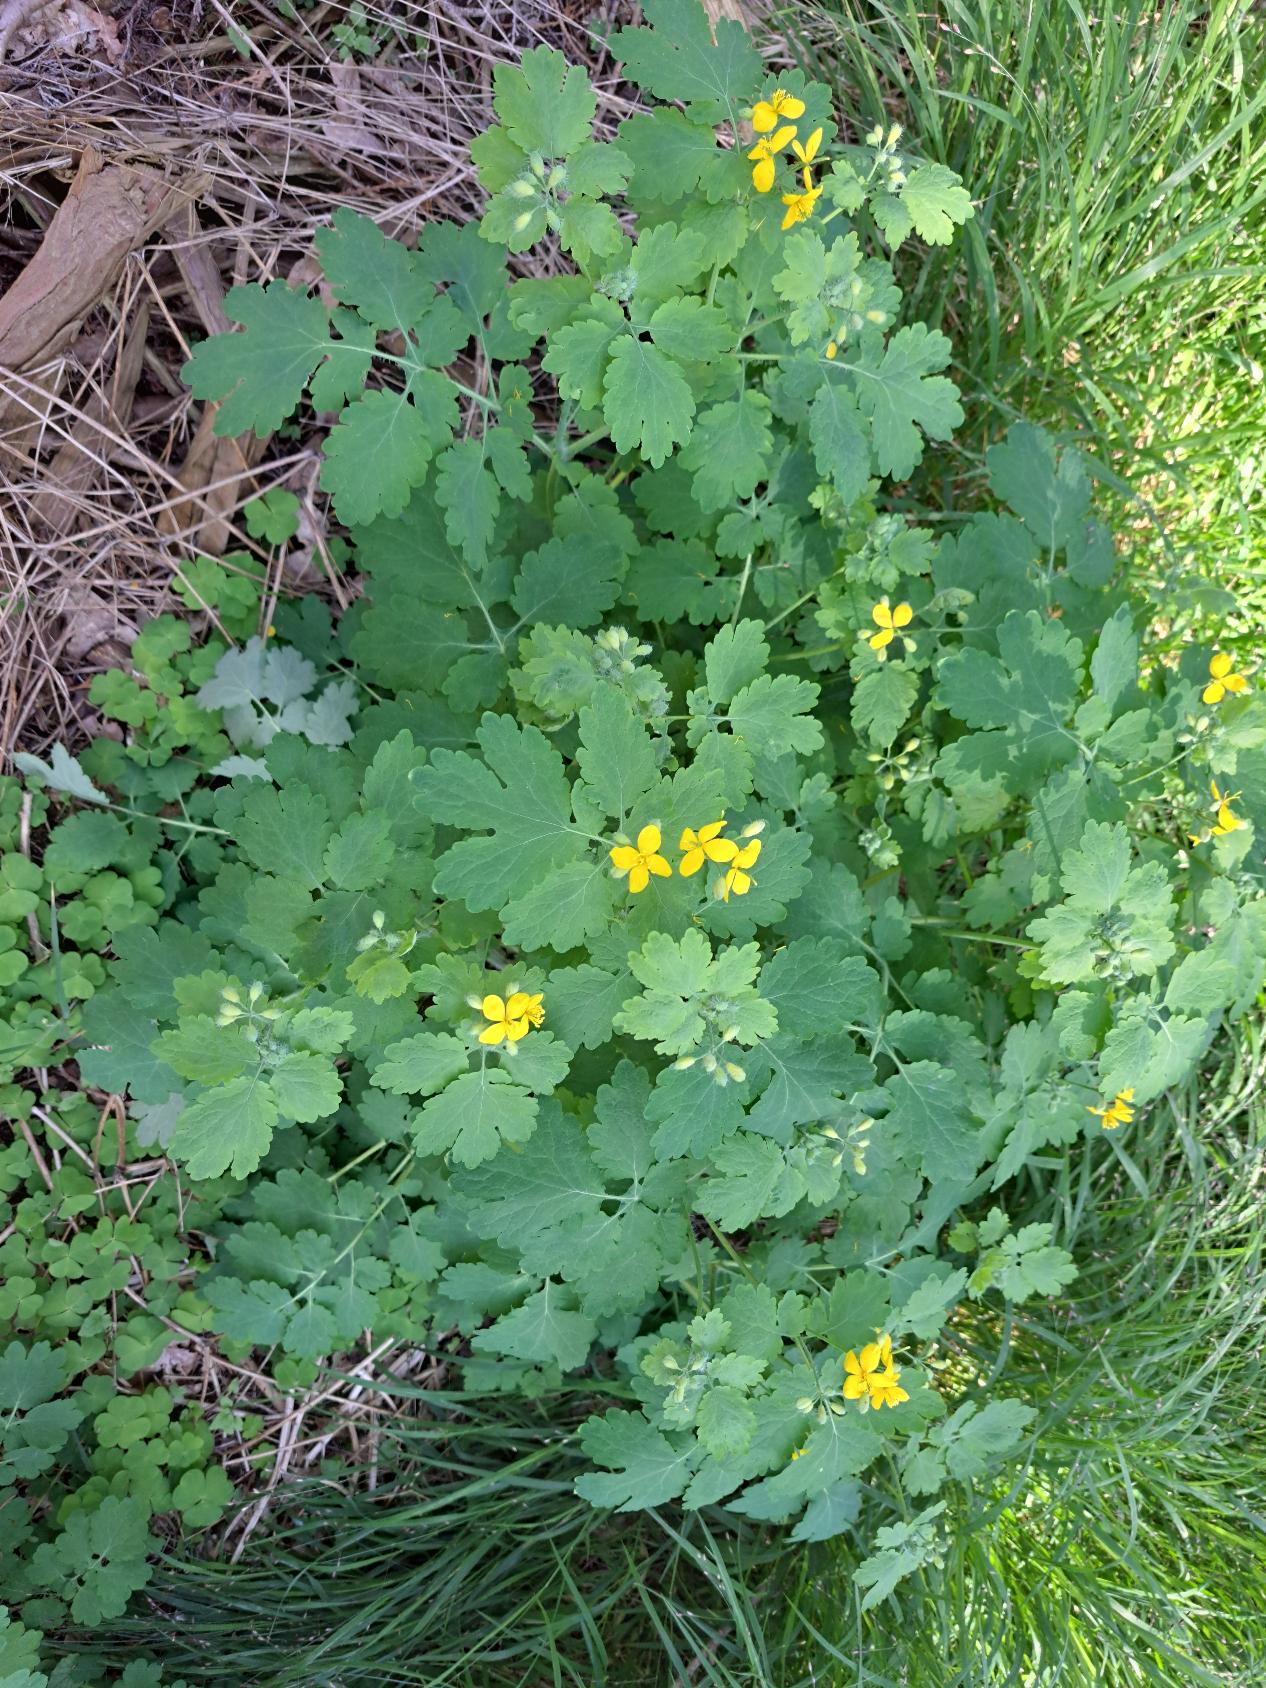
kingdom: Plantae
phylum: Tracheophyta
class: Magnoliopsida
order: Ranunculales
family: Papaveraceae
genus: Chelidonium
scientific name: Chelidonium majus
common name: Svaleurt
